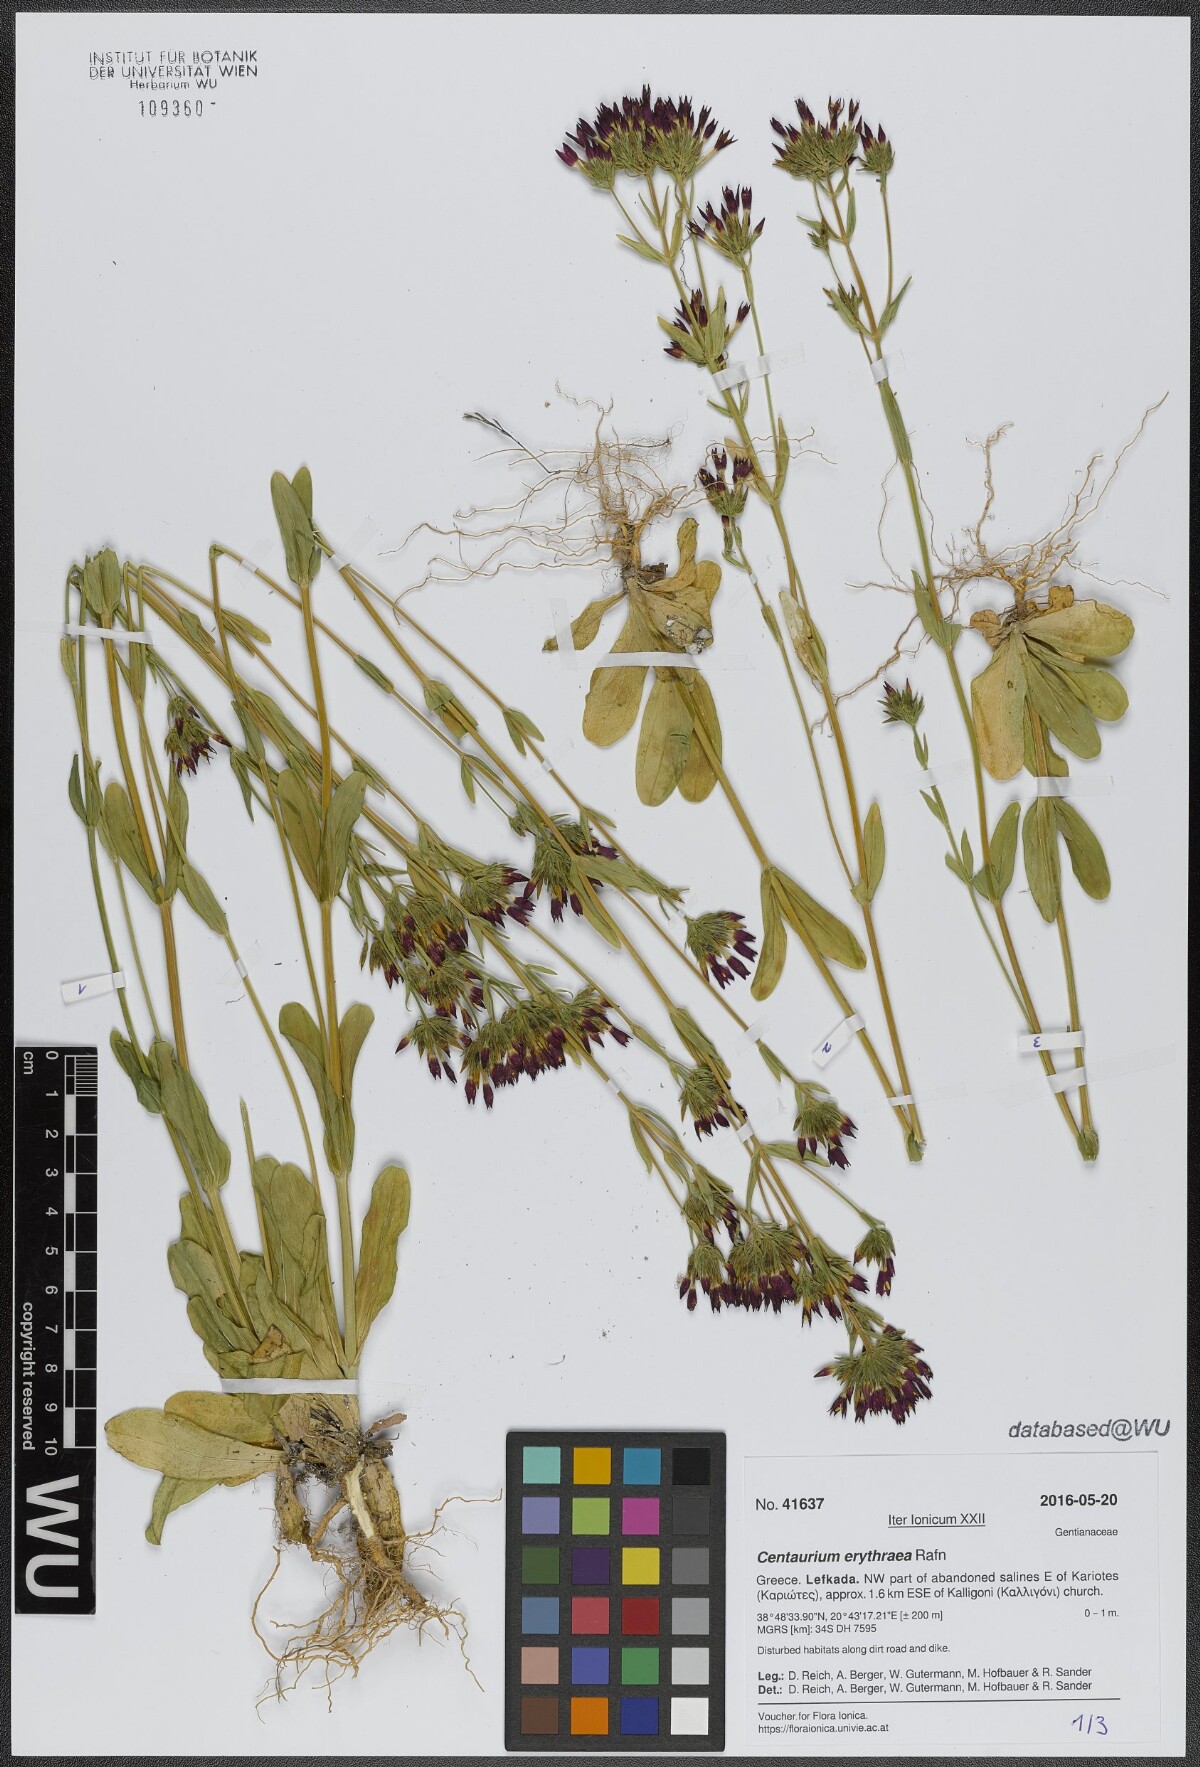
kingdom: Plantae
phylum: Tracheophyta
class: Magnoliopsida
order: Gentianales
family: Gentianaceae
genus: Centaurium
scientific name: Centaurium erythraea
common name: Common centaury
